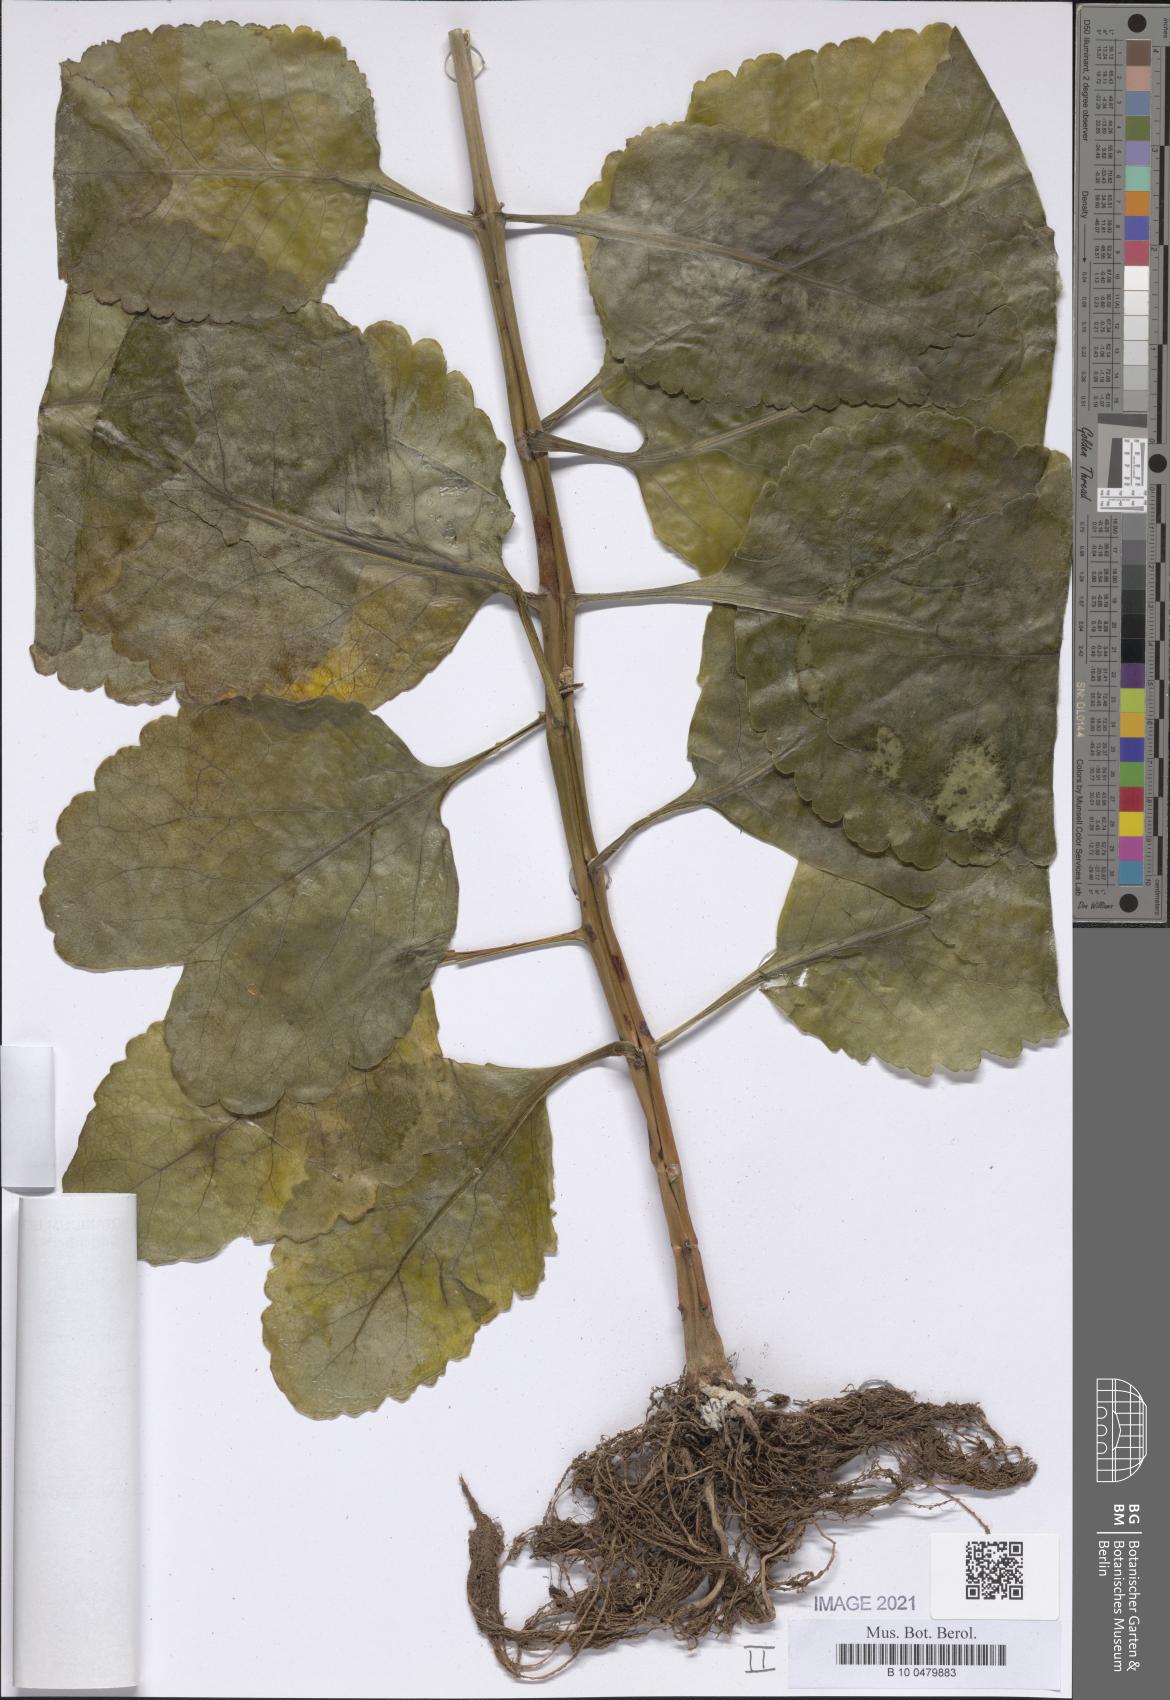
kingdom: Plantae
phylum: Tracheophyta
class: Magnoliopsida
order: Saxifragales
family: Crassulaceae
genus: Kalanchoe
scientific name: Kalanchoe crenata
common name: Neverdie
